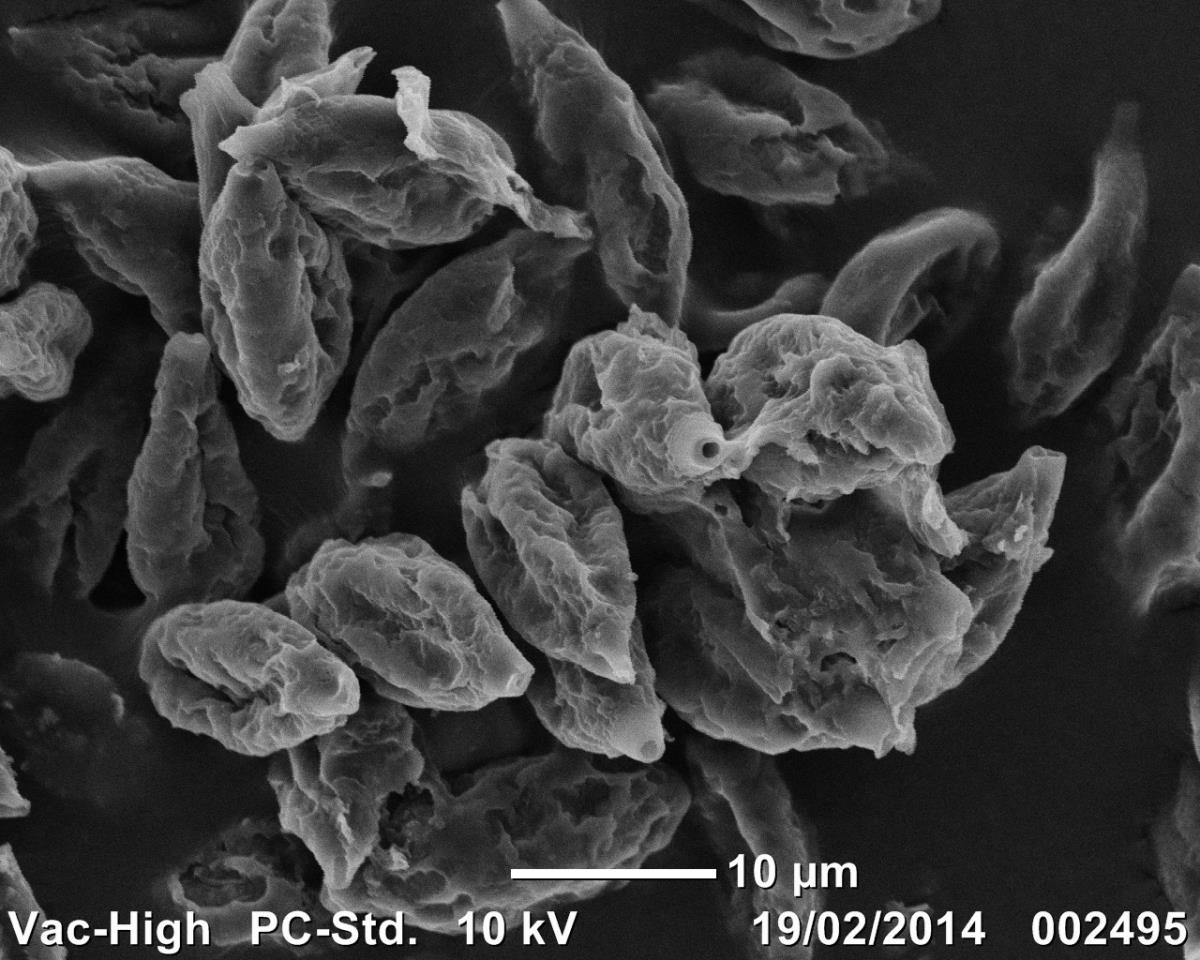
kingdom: Fungi
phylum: Basidiomycota
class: Agaricomycetes
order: Agaricales
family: Hymenogastraceae
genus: Hymenogaster
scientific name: Hymenogaster
